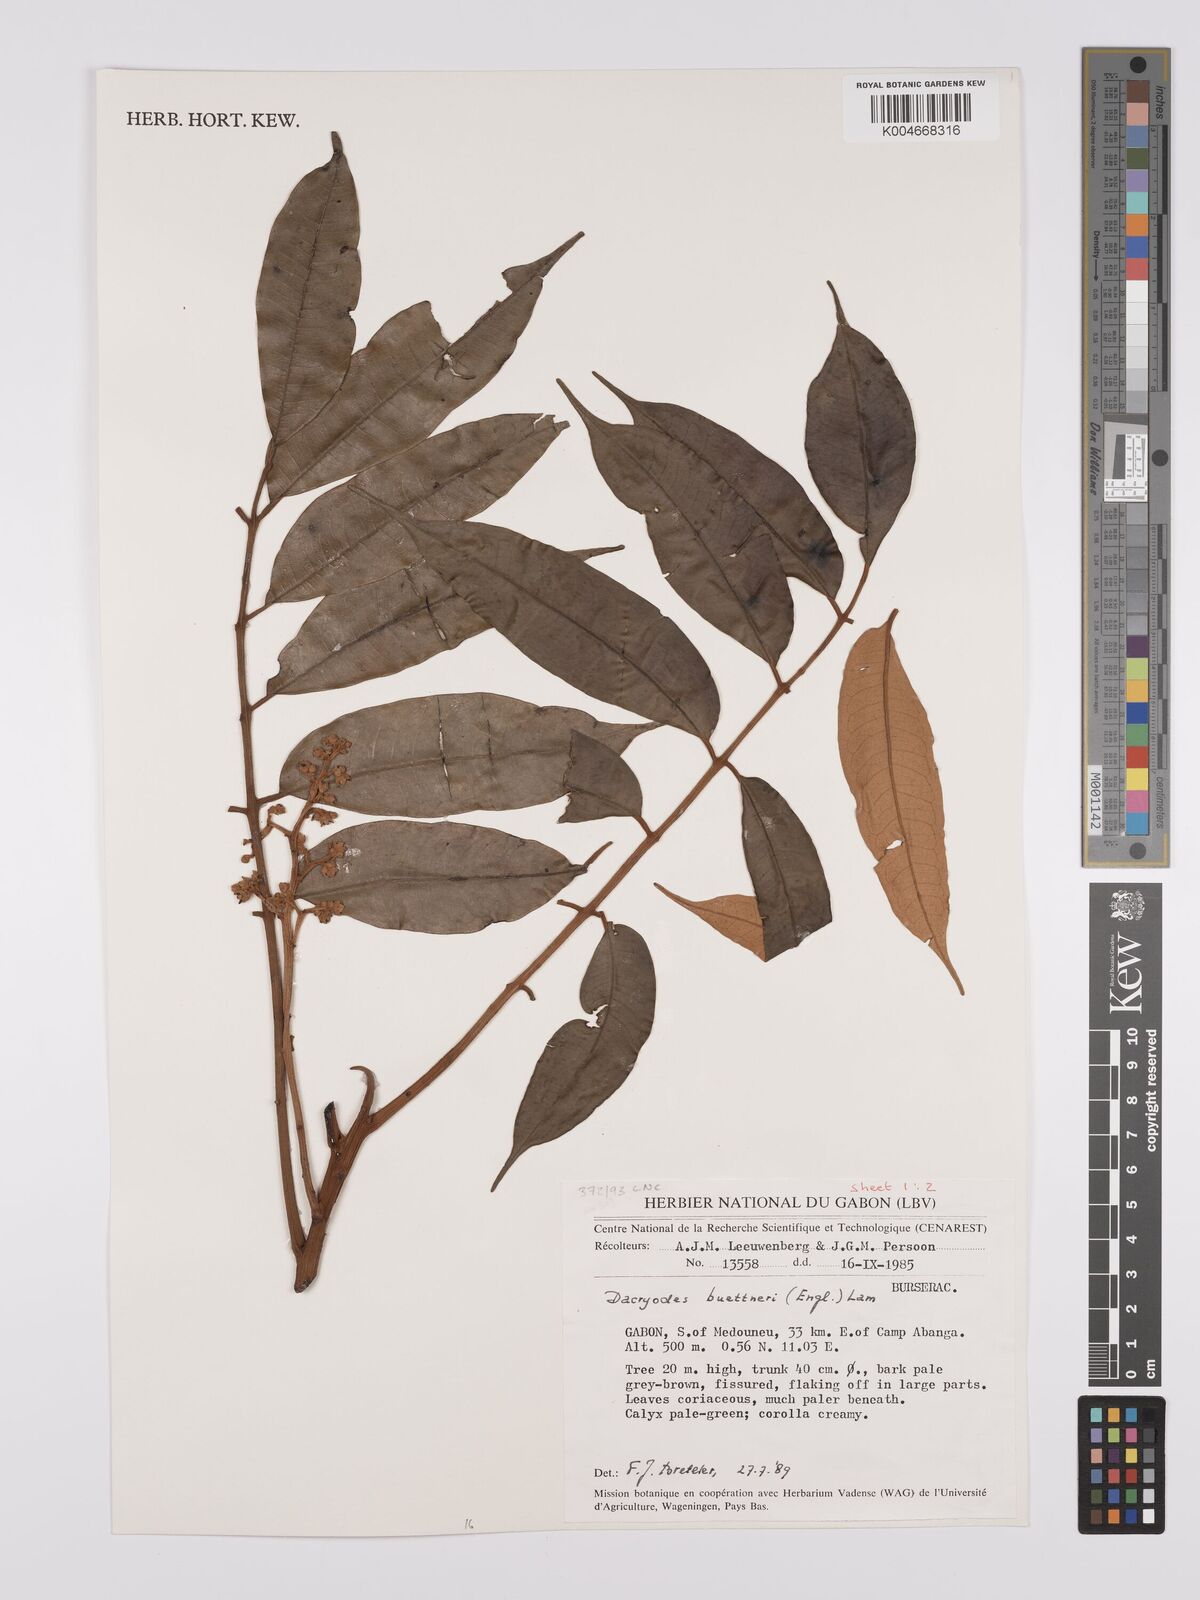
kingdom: Plantae
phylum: Tracheophyta
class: Magnoliopsida
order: Sapindales
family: Burseraceae
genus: Pachylobus
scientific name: Pachylobus buettneri
